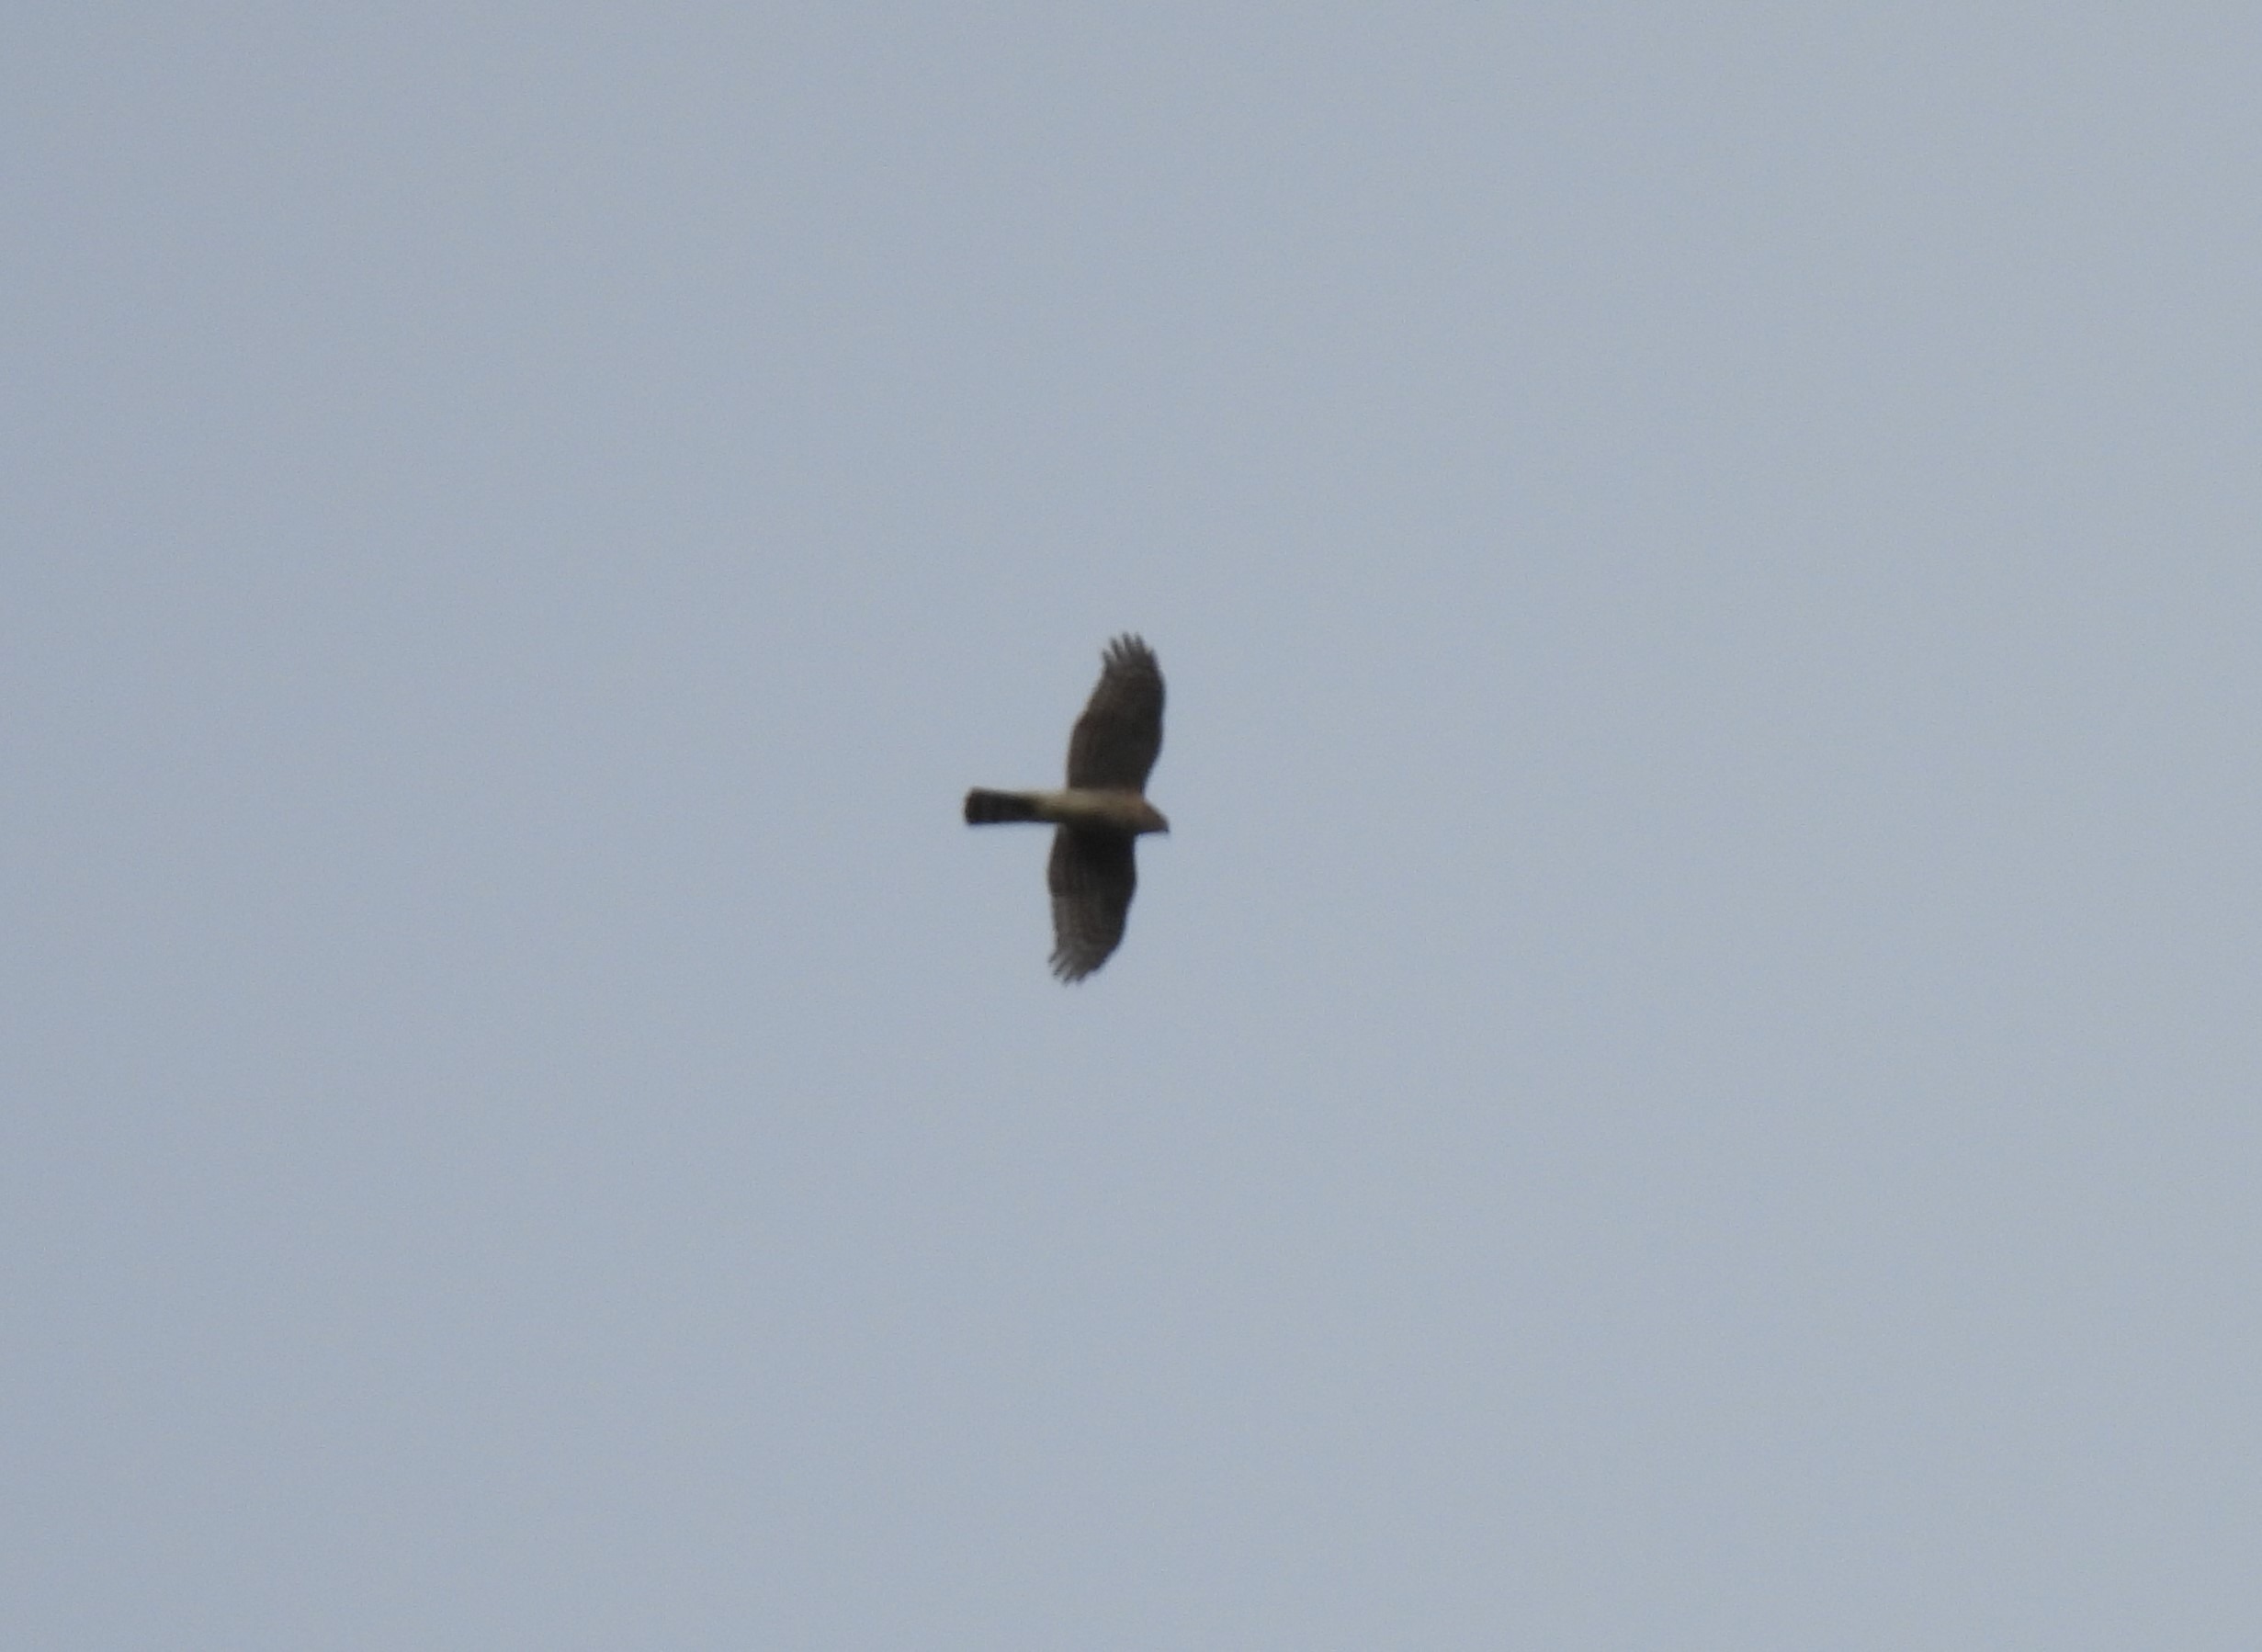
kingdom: Animalia
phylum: Chordata
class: Aves
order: Accipitriformes
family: Accipitridae
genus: Accipiter
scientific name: Accipiter nisus
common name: Spurvehøg
